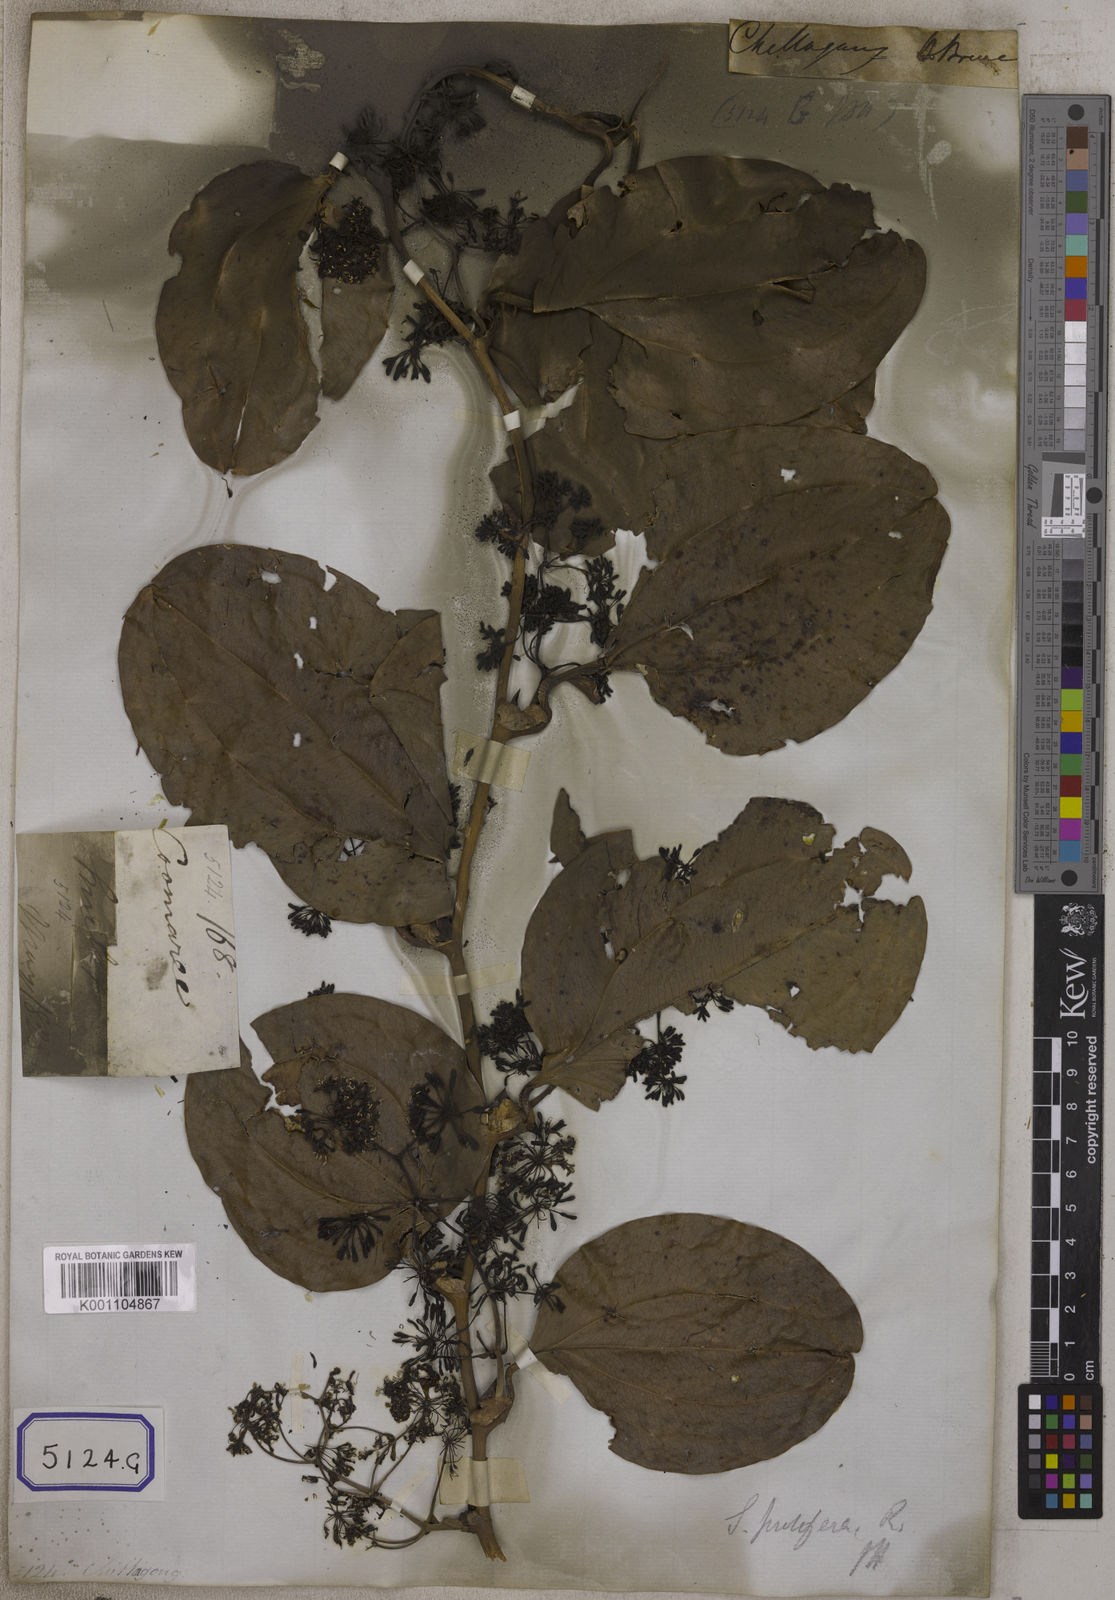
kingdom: Plantae
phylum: Tracheophyta
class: Liliopsida
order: Liliales
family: Smilacaceae
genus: Smilax
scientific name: Smilax prolifera
